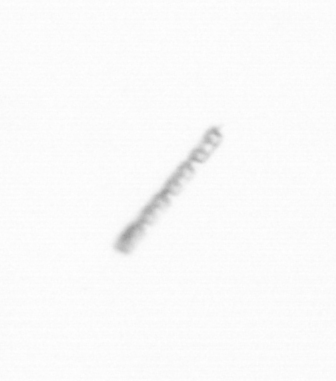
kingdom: Chromista
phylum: Ochrophyta
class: Bacillariophyceae
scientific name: Bacillariophyceae
